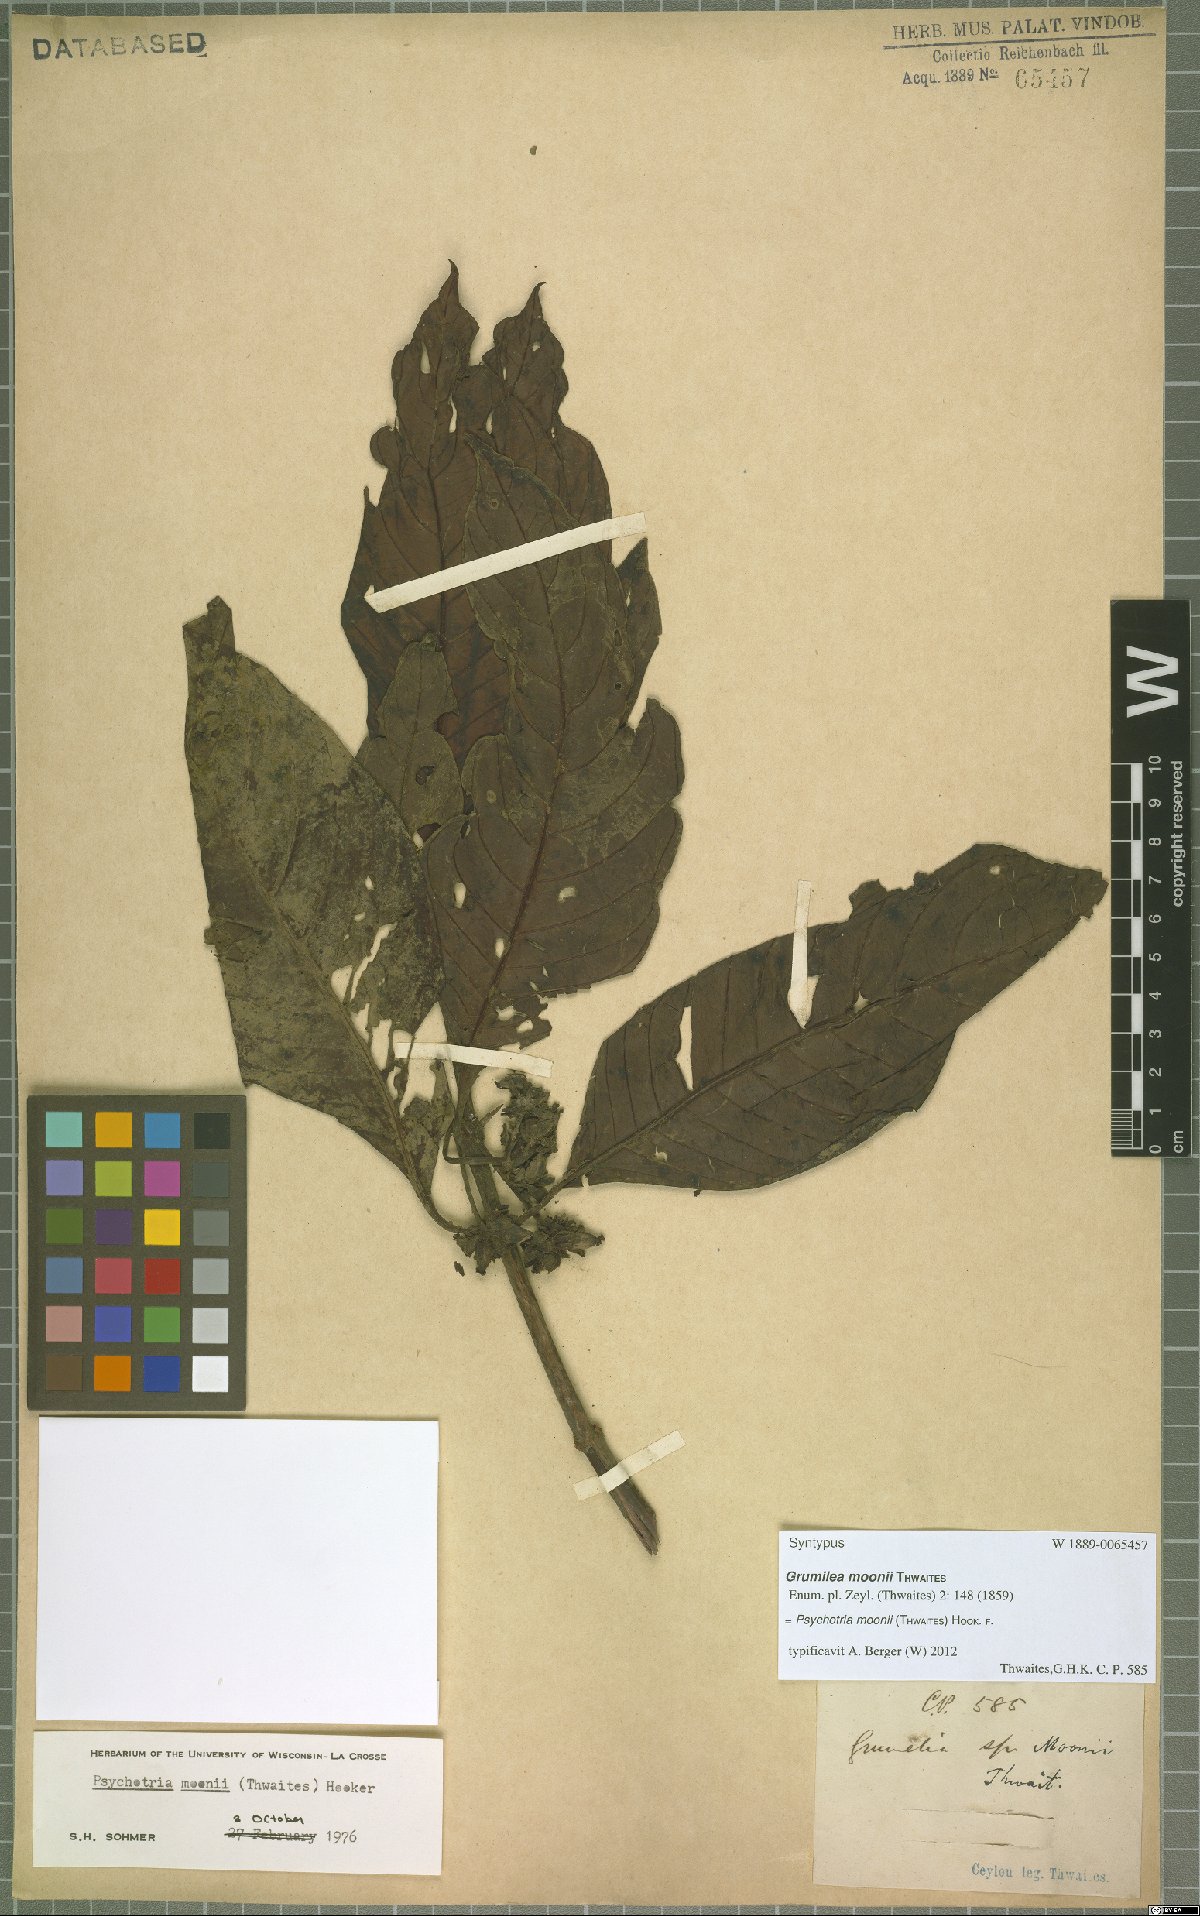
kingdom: Plantae
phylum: Tracheophyta
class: Magnoliopsida
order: Gentianales
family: Rubiaceae
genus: Psychotria
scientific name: Psychotria moonii
